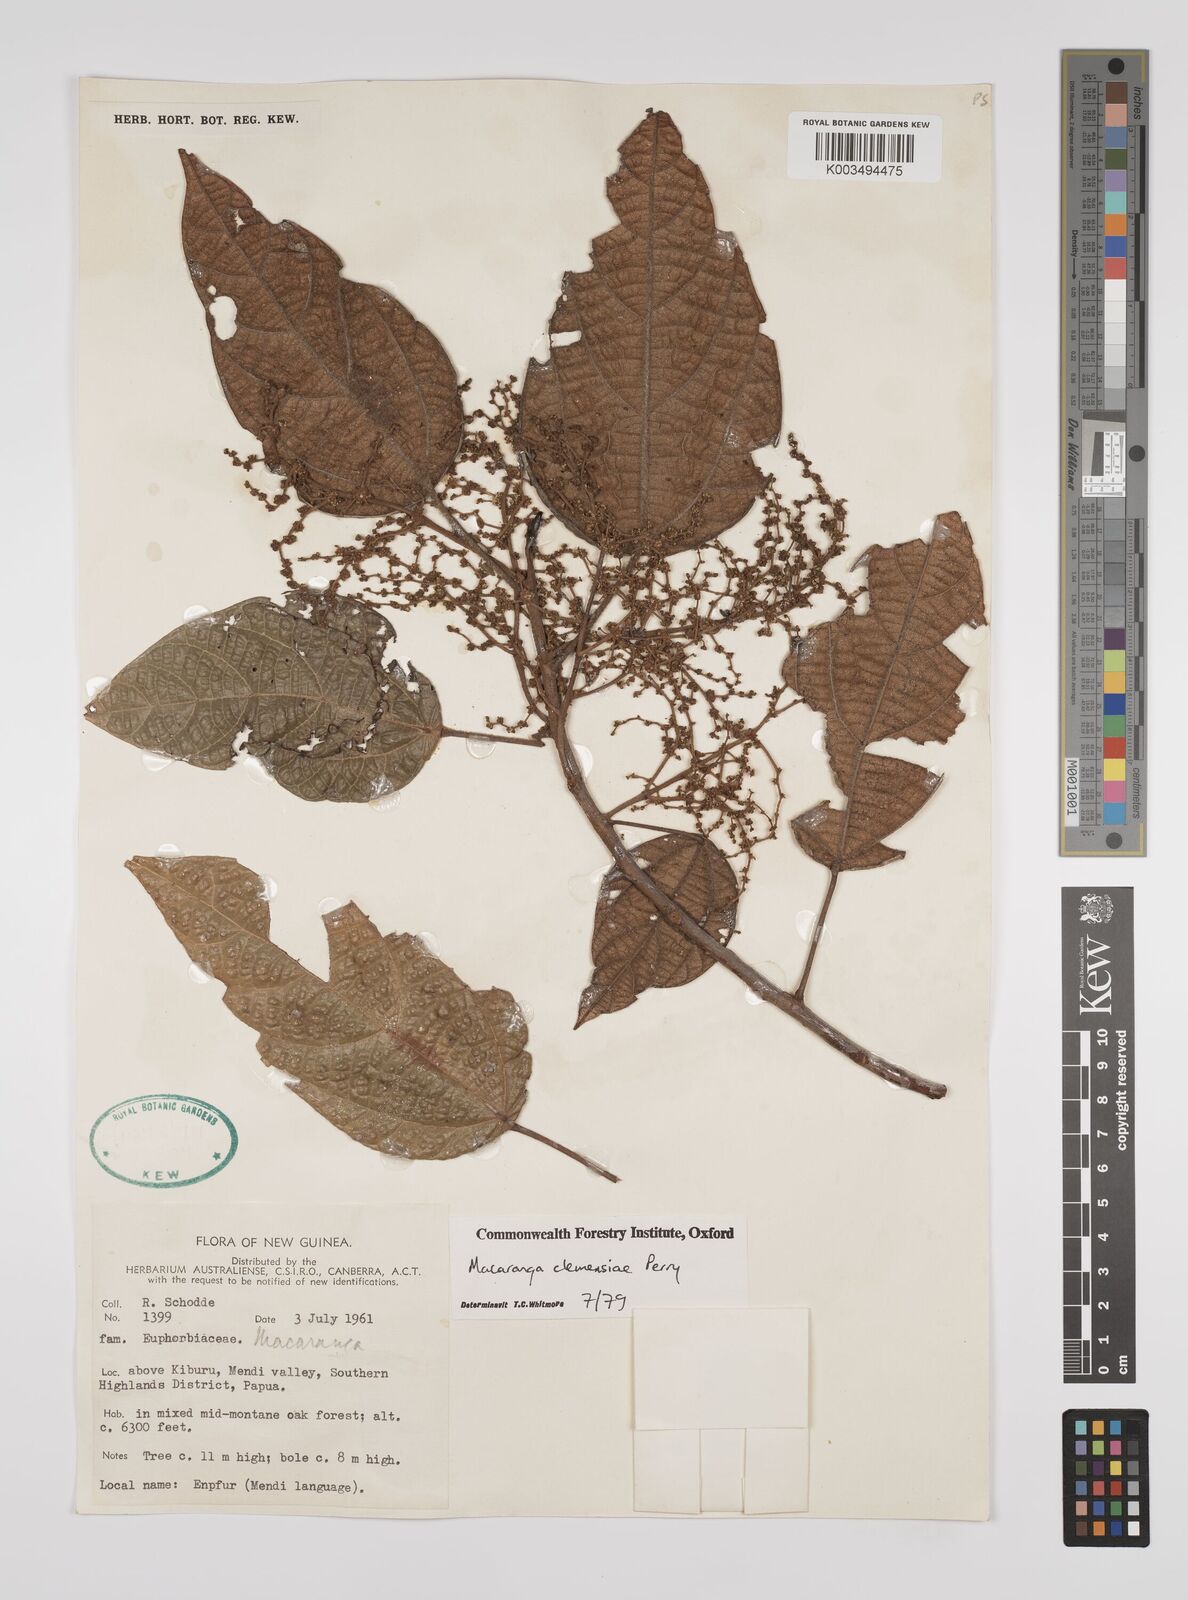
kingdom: Plantae
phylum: Tracheophyta
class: Magnoliopsida
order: Malpighiales
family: Euphorbiaceae
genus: Macaranga
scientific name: Macaranga clemensiae
